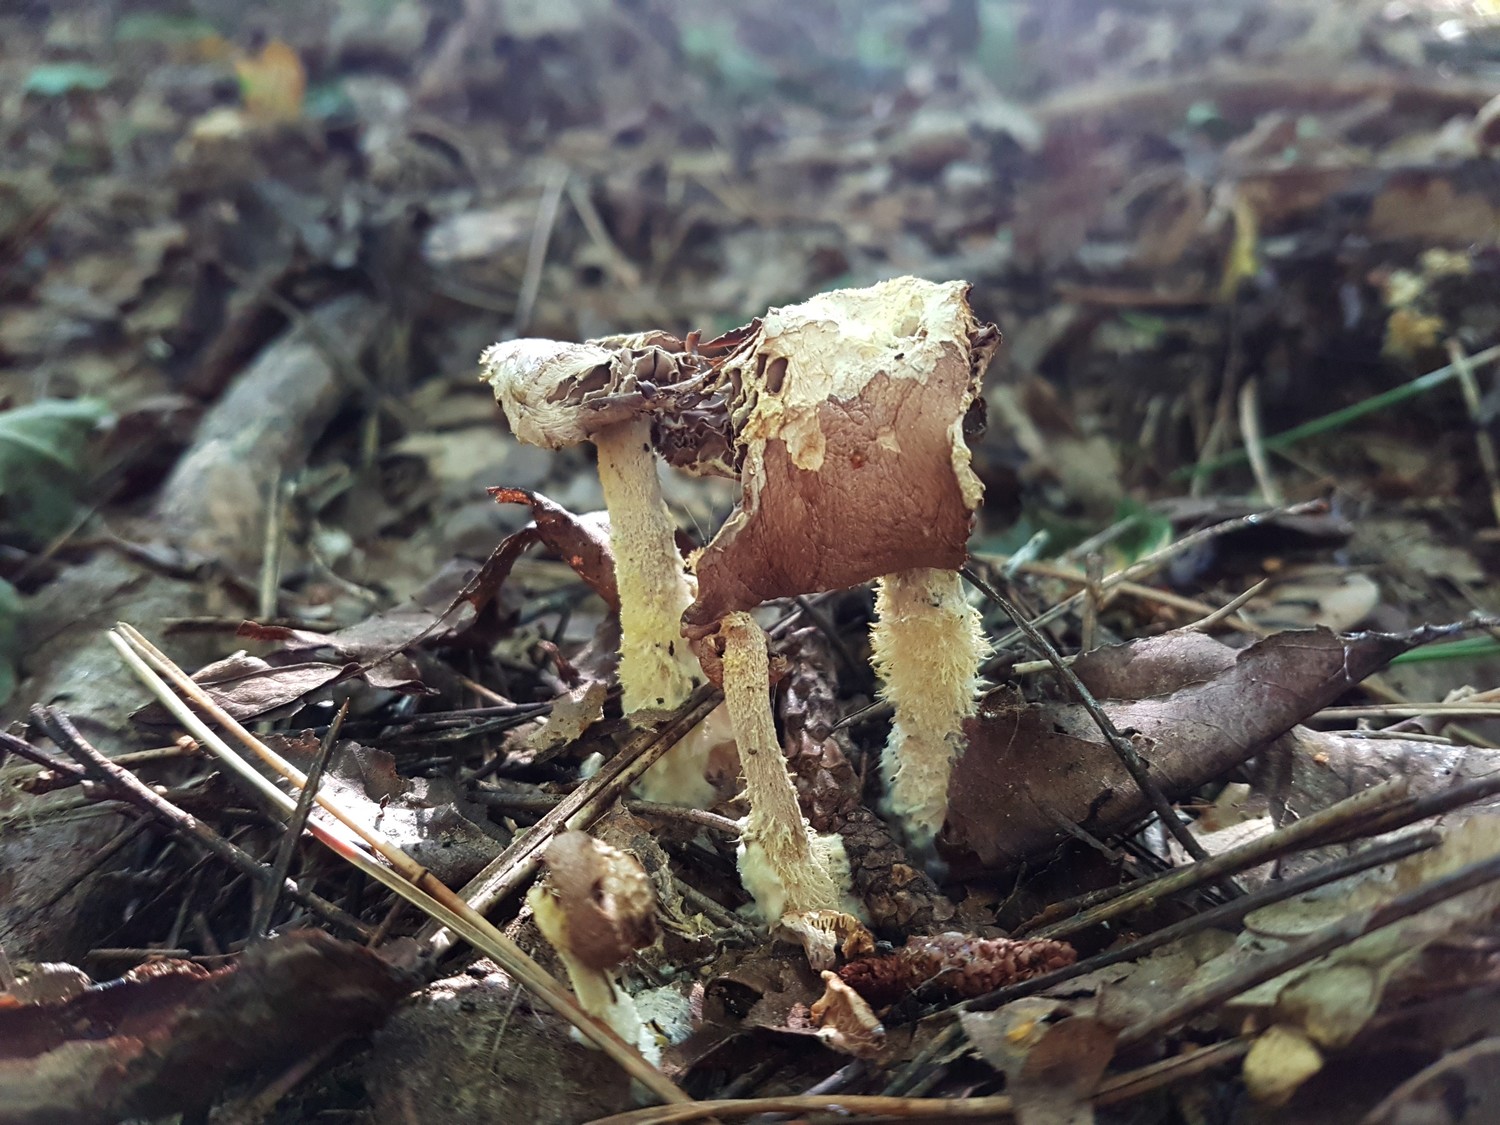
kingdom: Fungi
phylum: Basidiomycota
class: Agaricomycetes
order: Agaricales
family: Omphalotaceae
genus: Collybiopsis
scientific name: Collybiopsis peronata
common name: bestøvlet fladhat
